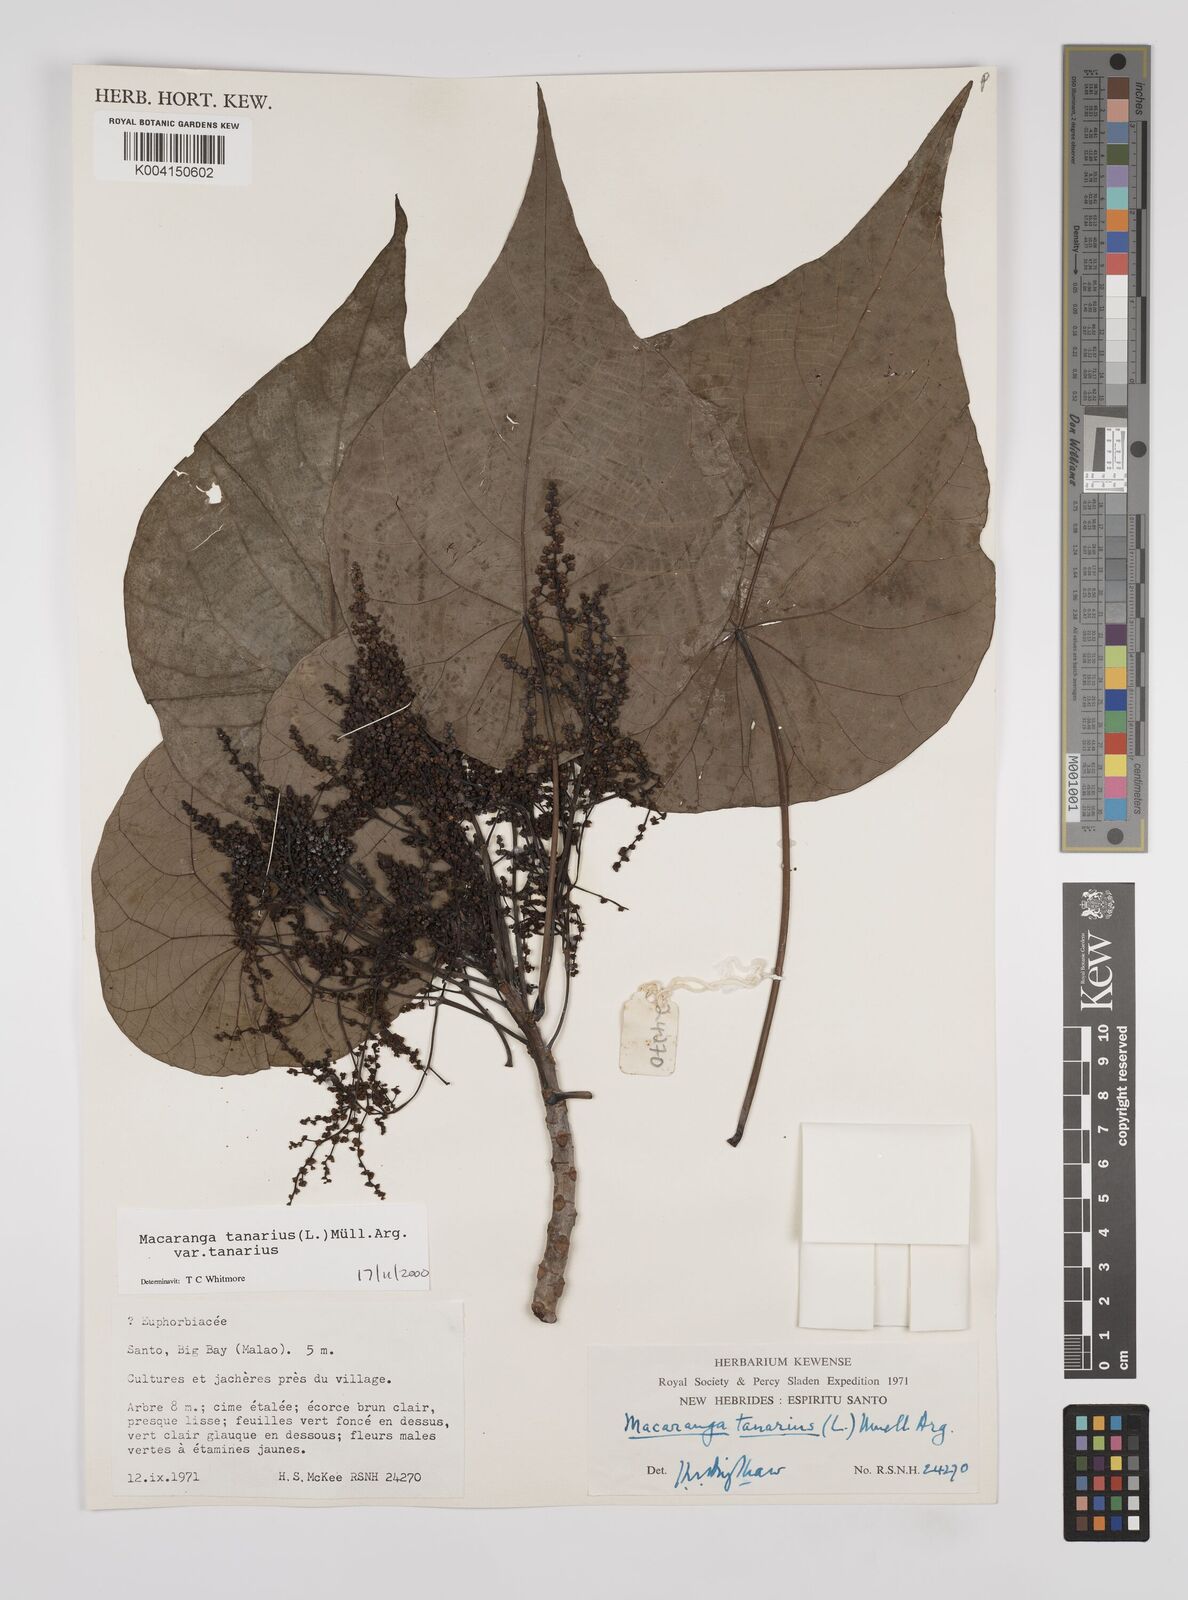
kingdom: Plantae
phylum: Tracheophyta
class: Magnoliopsida
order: Malpighiales
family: Euphorbiaceae
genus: Macaranga
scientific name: Macaranga tanarius
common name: Parasol leaf tree
